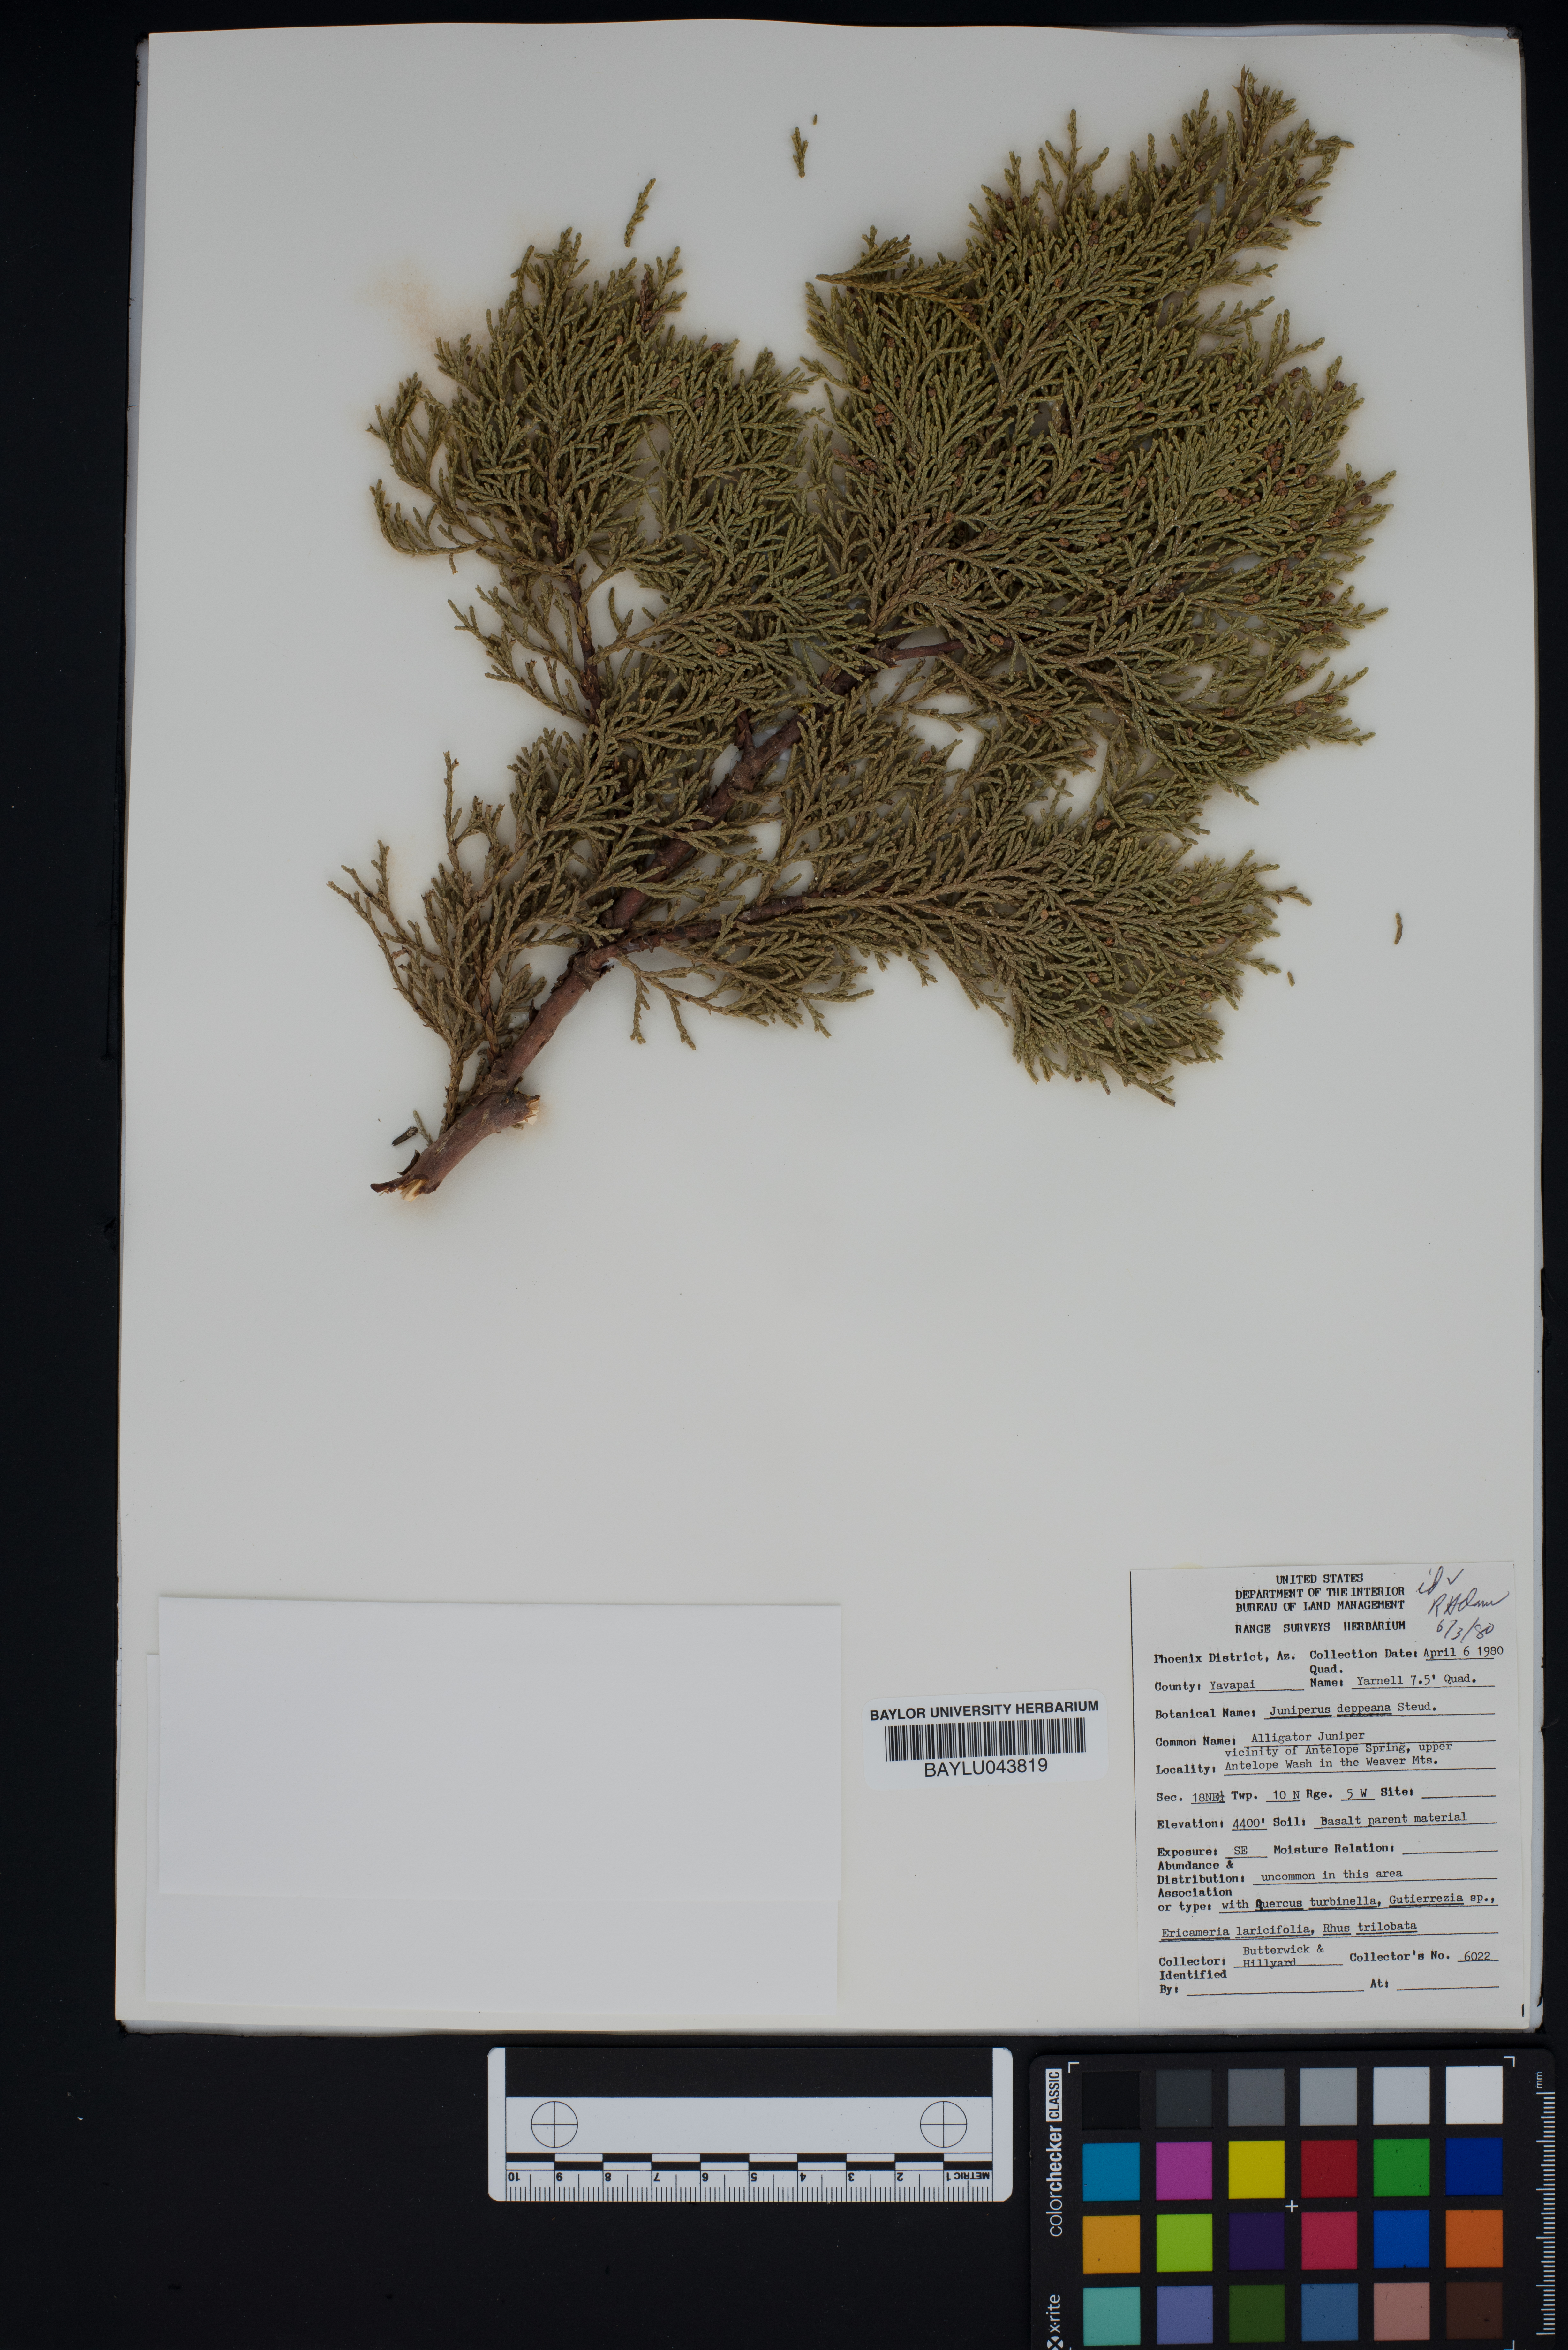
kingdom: Plantae
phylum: Tracheophyta
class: Pinopsida
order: Pinales
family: Cupressaceae
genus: Juniperus
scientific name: Juniperus deppeana
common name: Alligator juniper
